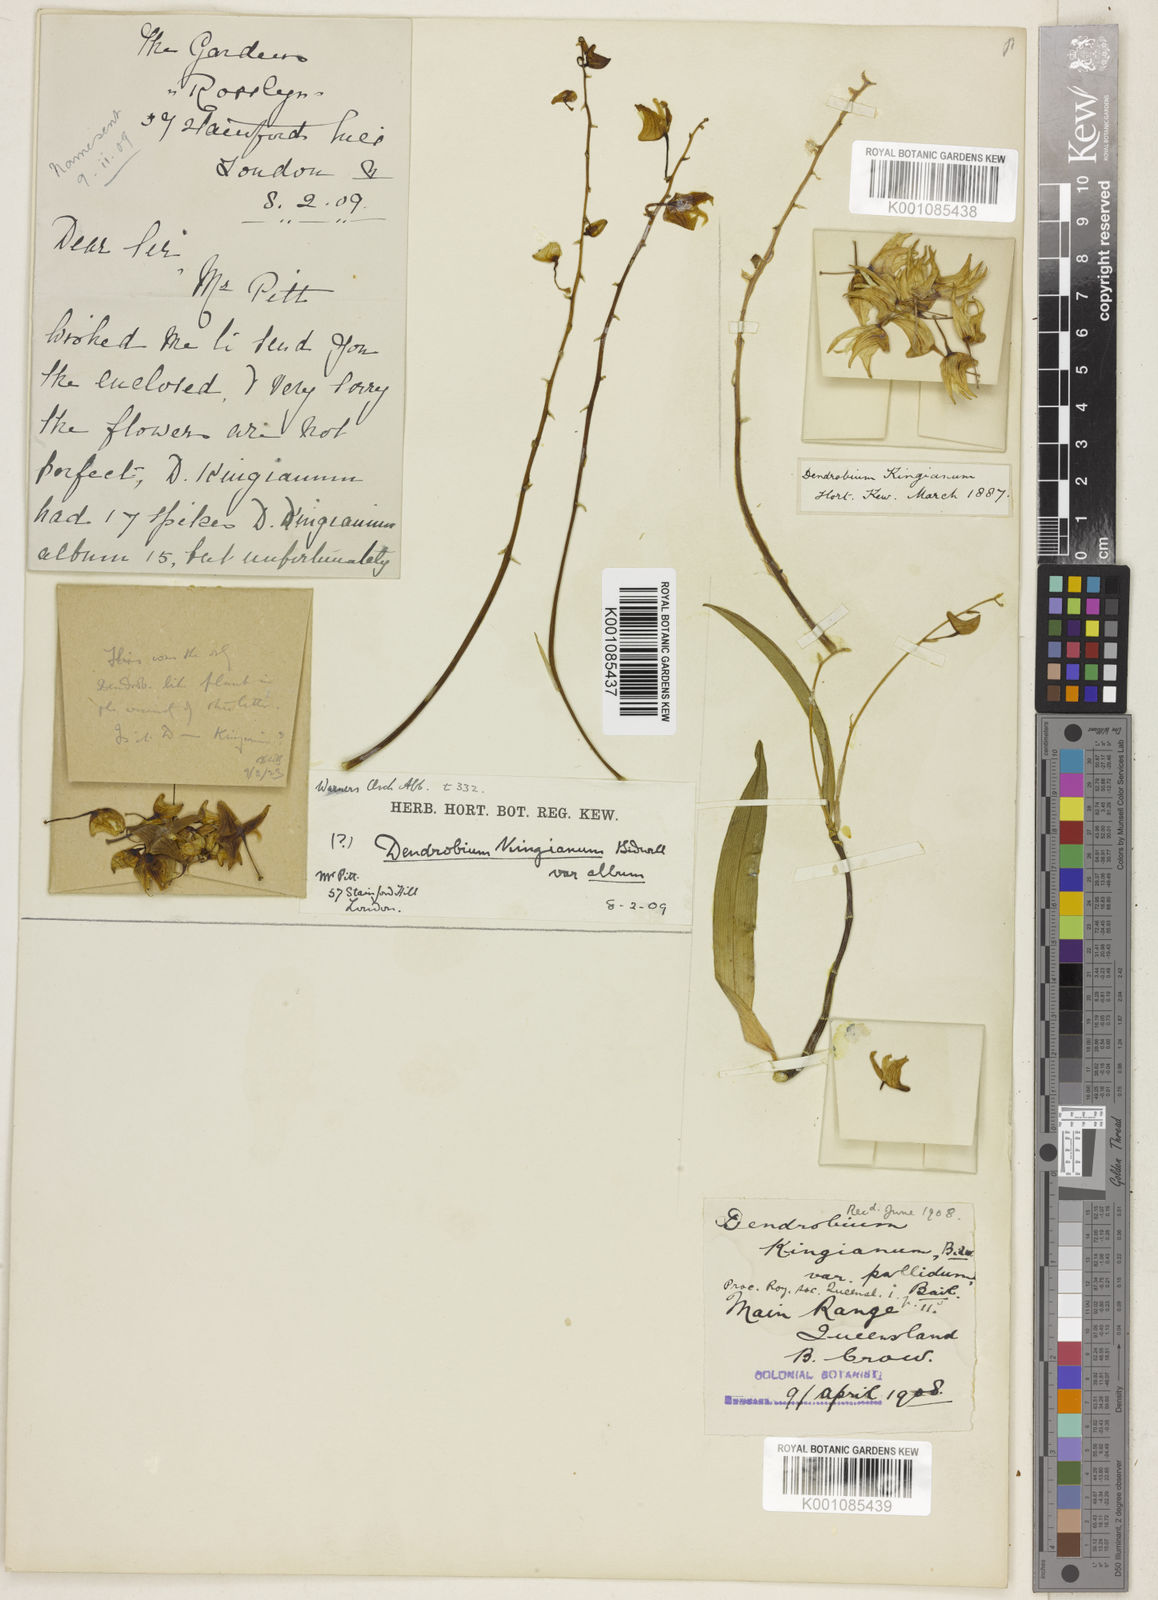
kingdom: Plantae
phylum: Tracheophyta
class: Liliopsida
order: Asparagales
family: Orchidaceae
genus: Dendrobium
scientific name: Dendrobium kingianum
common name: Pink rock orchid
